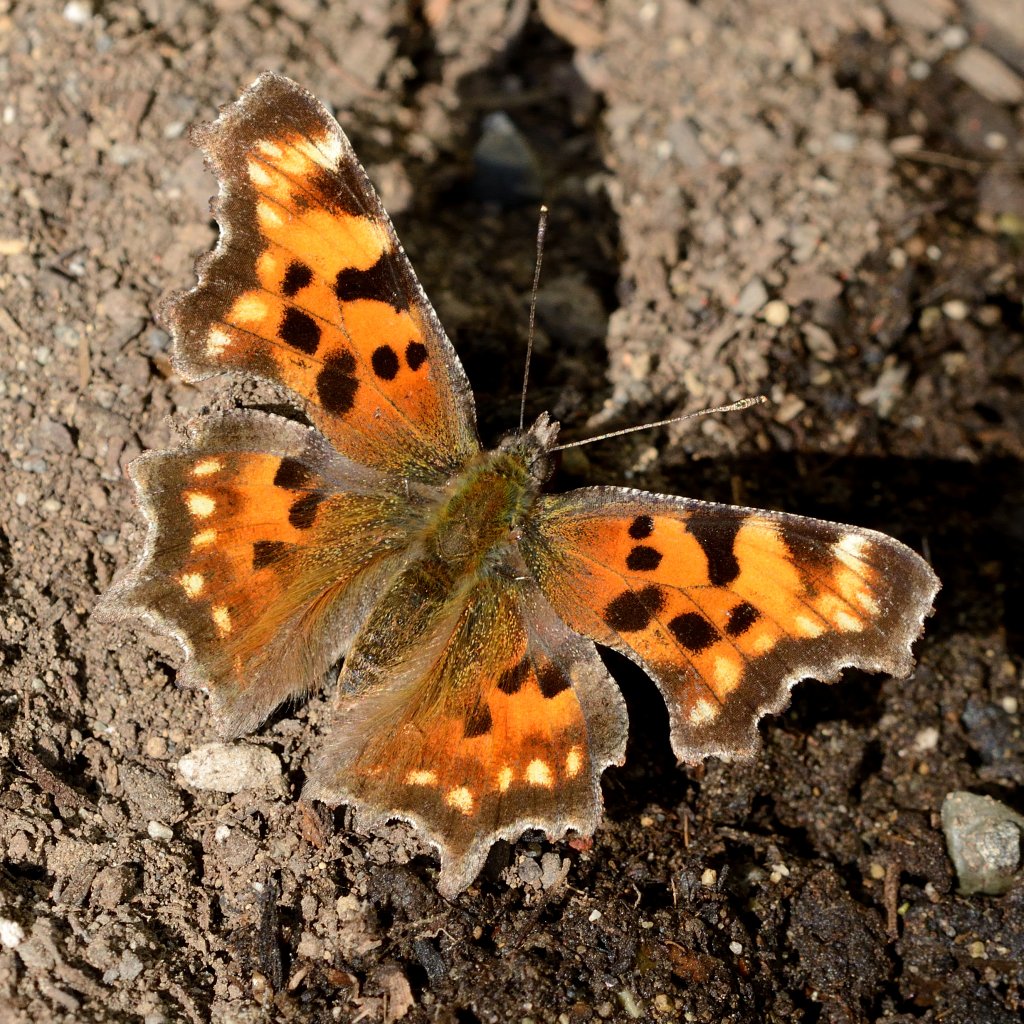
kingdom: Animalia
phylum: Arthropoda
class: Insecta
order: Lepidoptera
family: Nymphalidae
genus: Polygonia
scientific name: Polygonia faunus
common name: Green Comma
